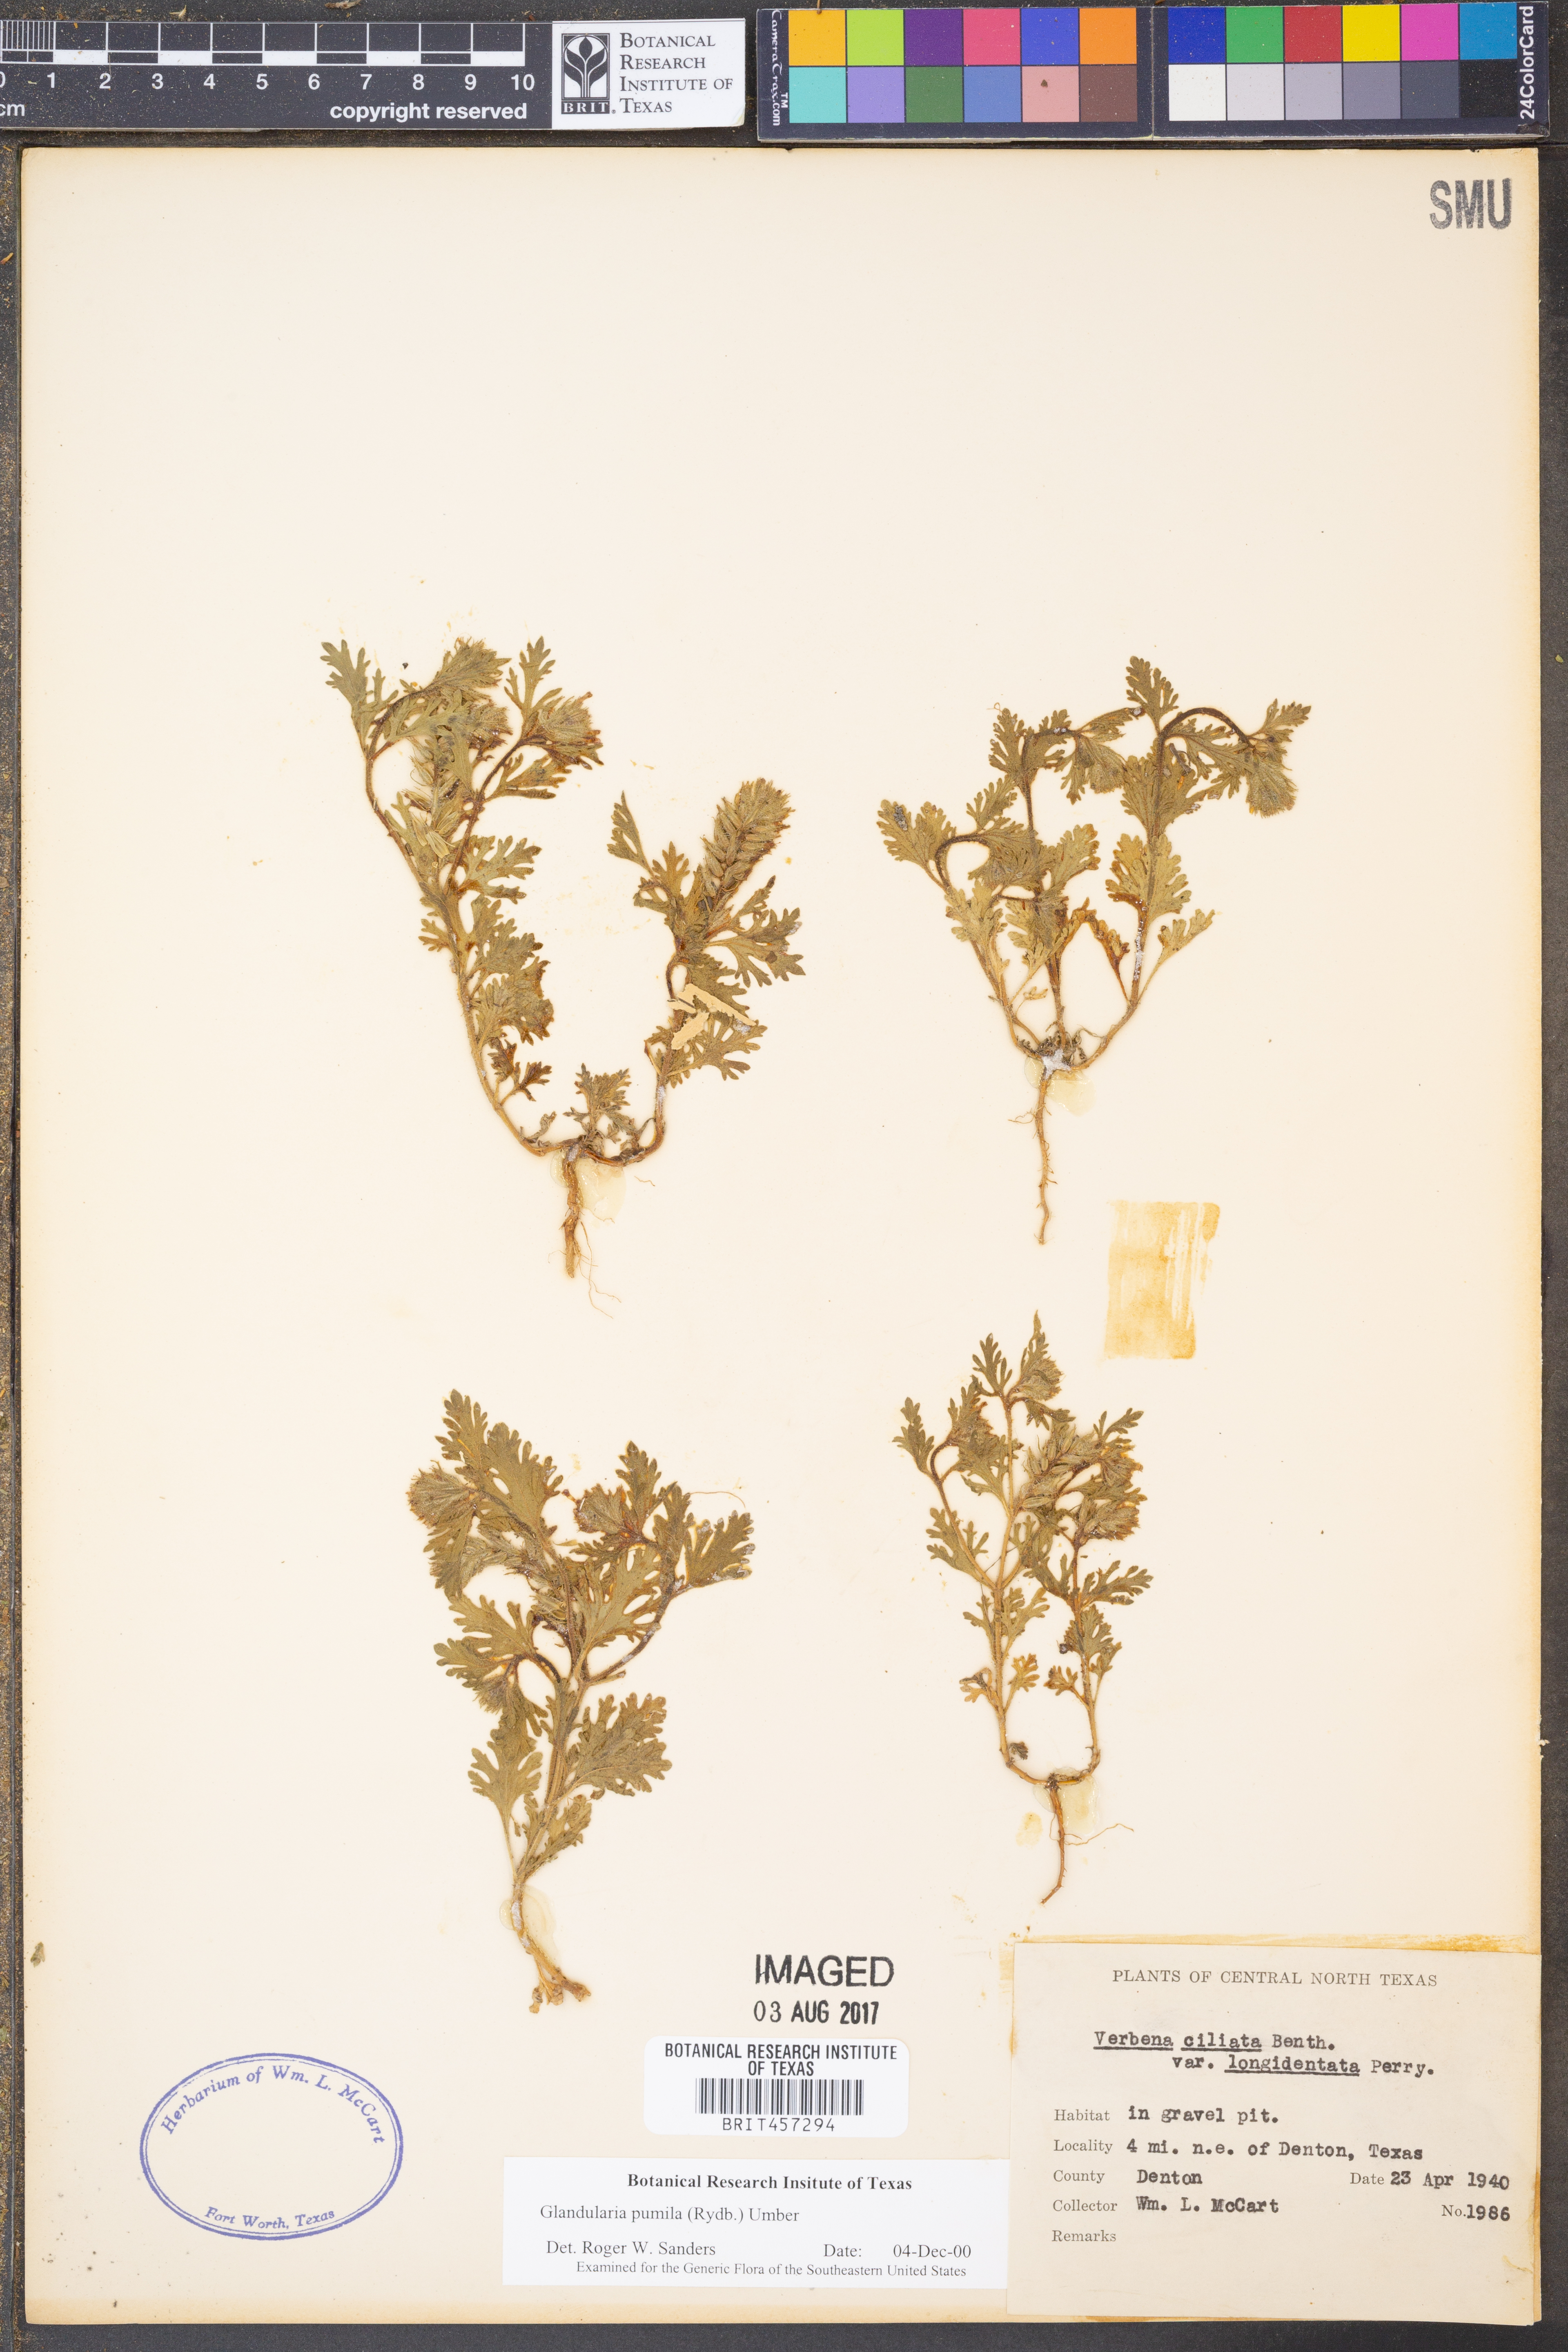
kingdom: Plantae
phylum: Tracheophyta
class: Magnoliopsida
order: Lamiales
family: Verbenaceae
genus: Verbena
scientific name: Verbena pumila
